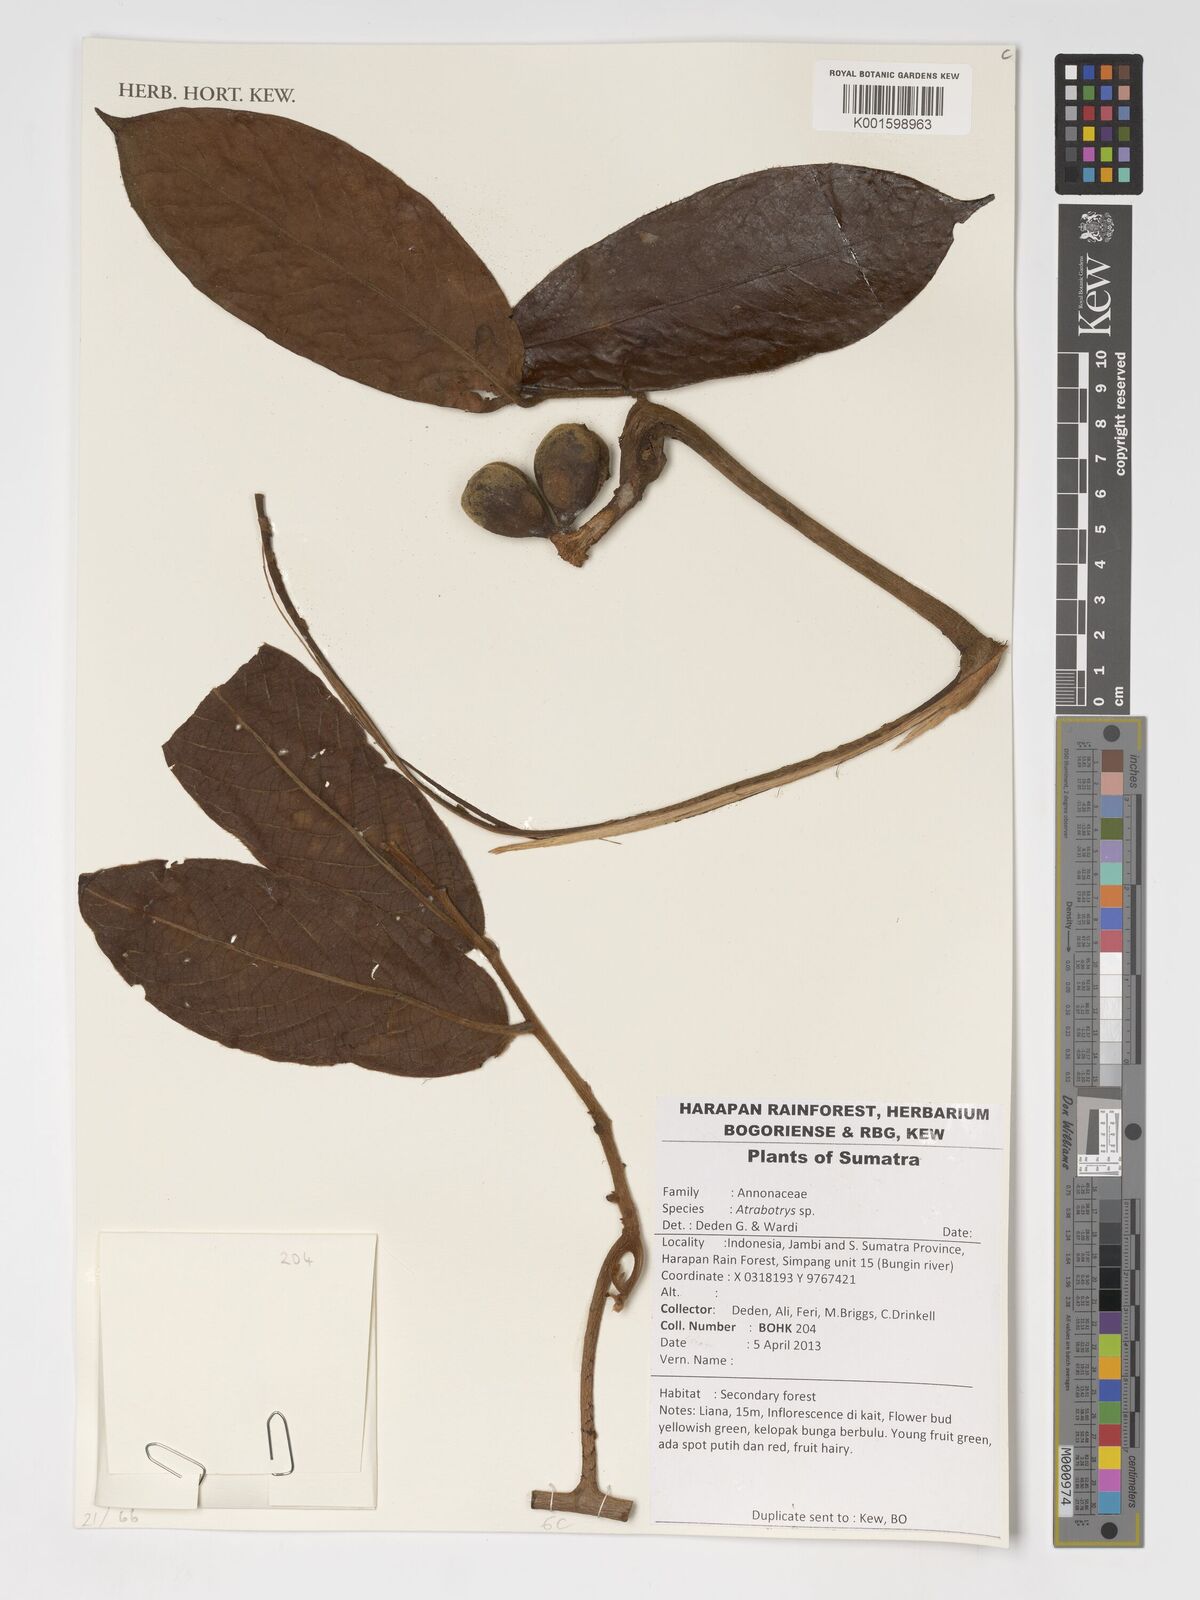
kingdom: Plantae
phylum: Tracheophyta
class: Magnoliopsida
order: Magnoliales
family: Annonaceae
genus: Artabotrys
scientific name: Artabotrys
